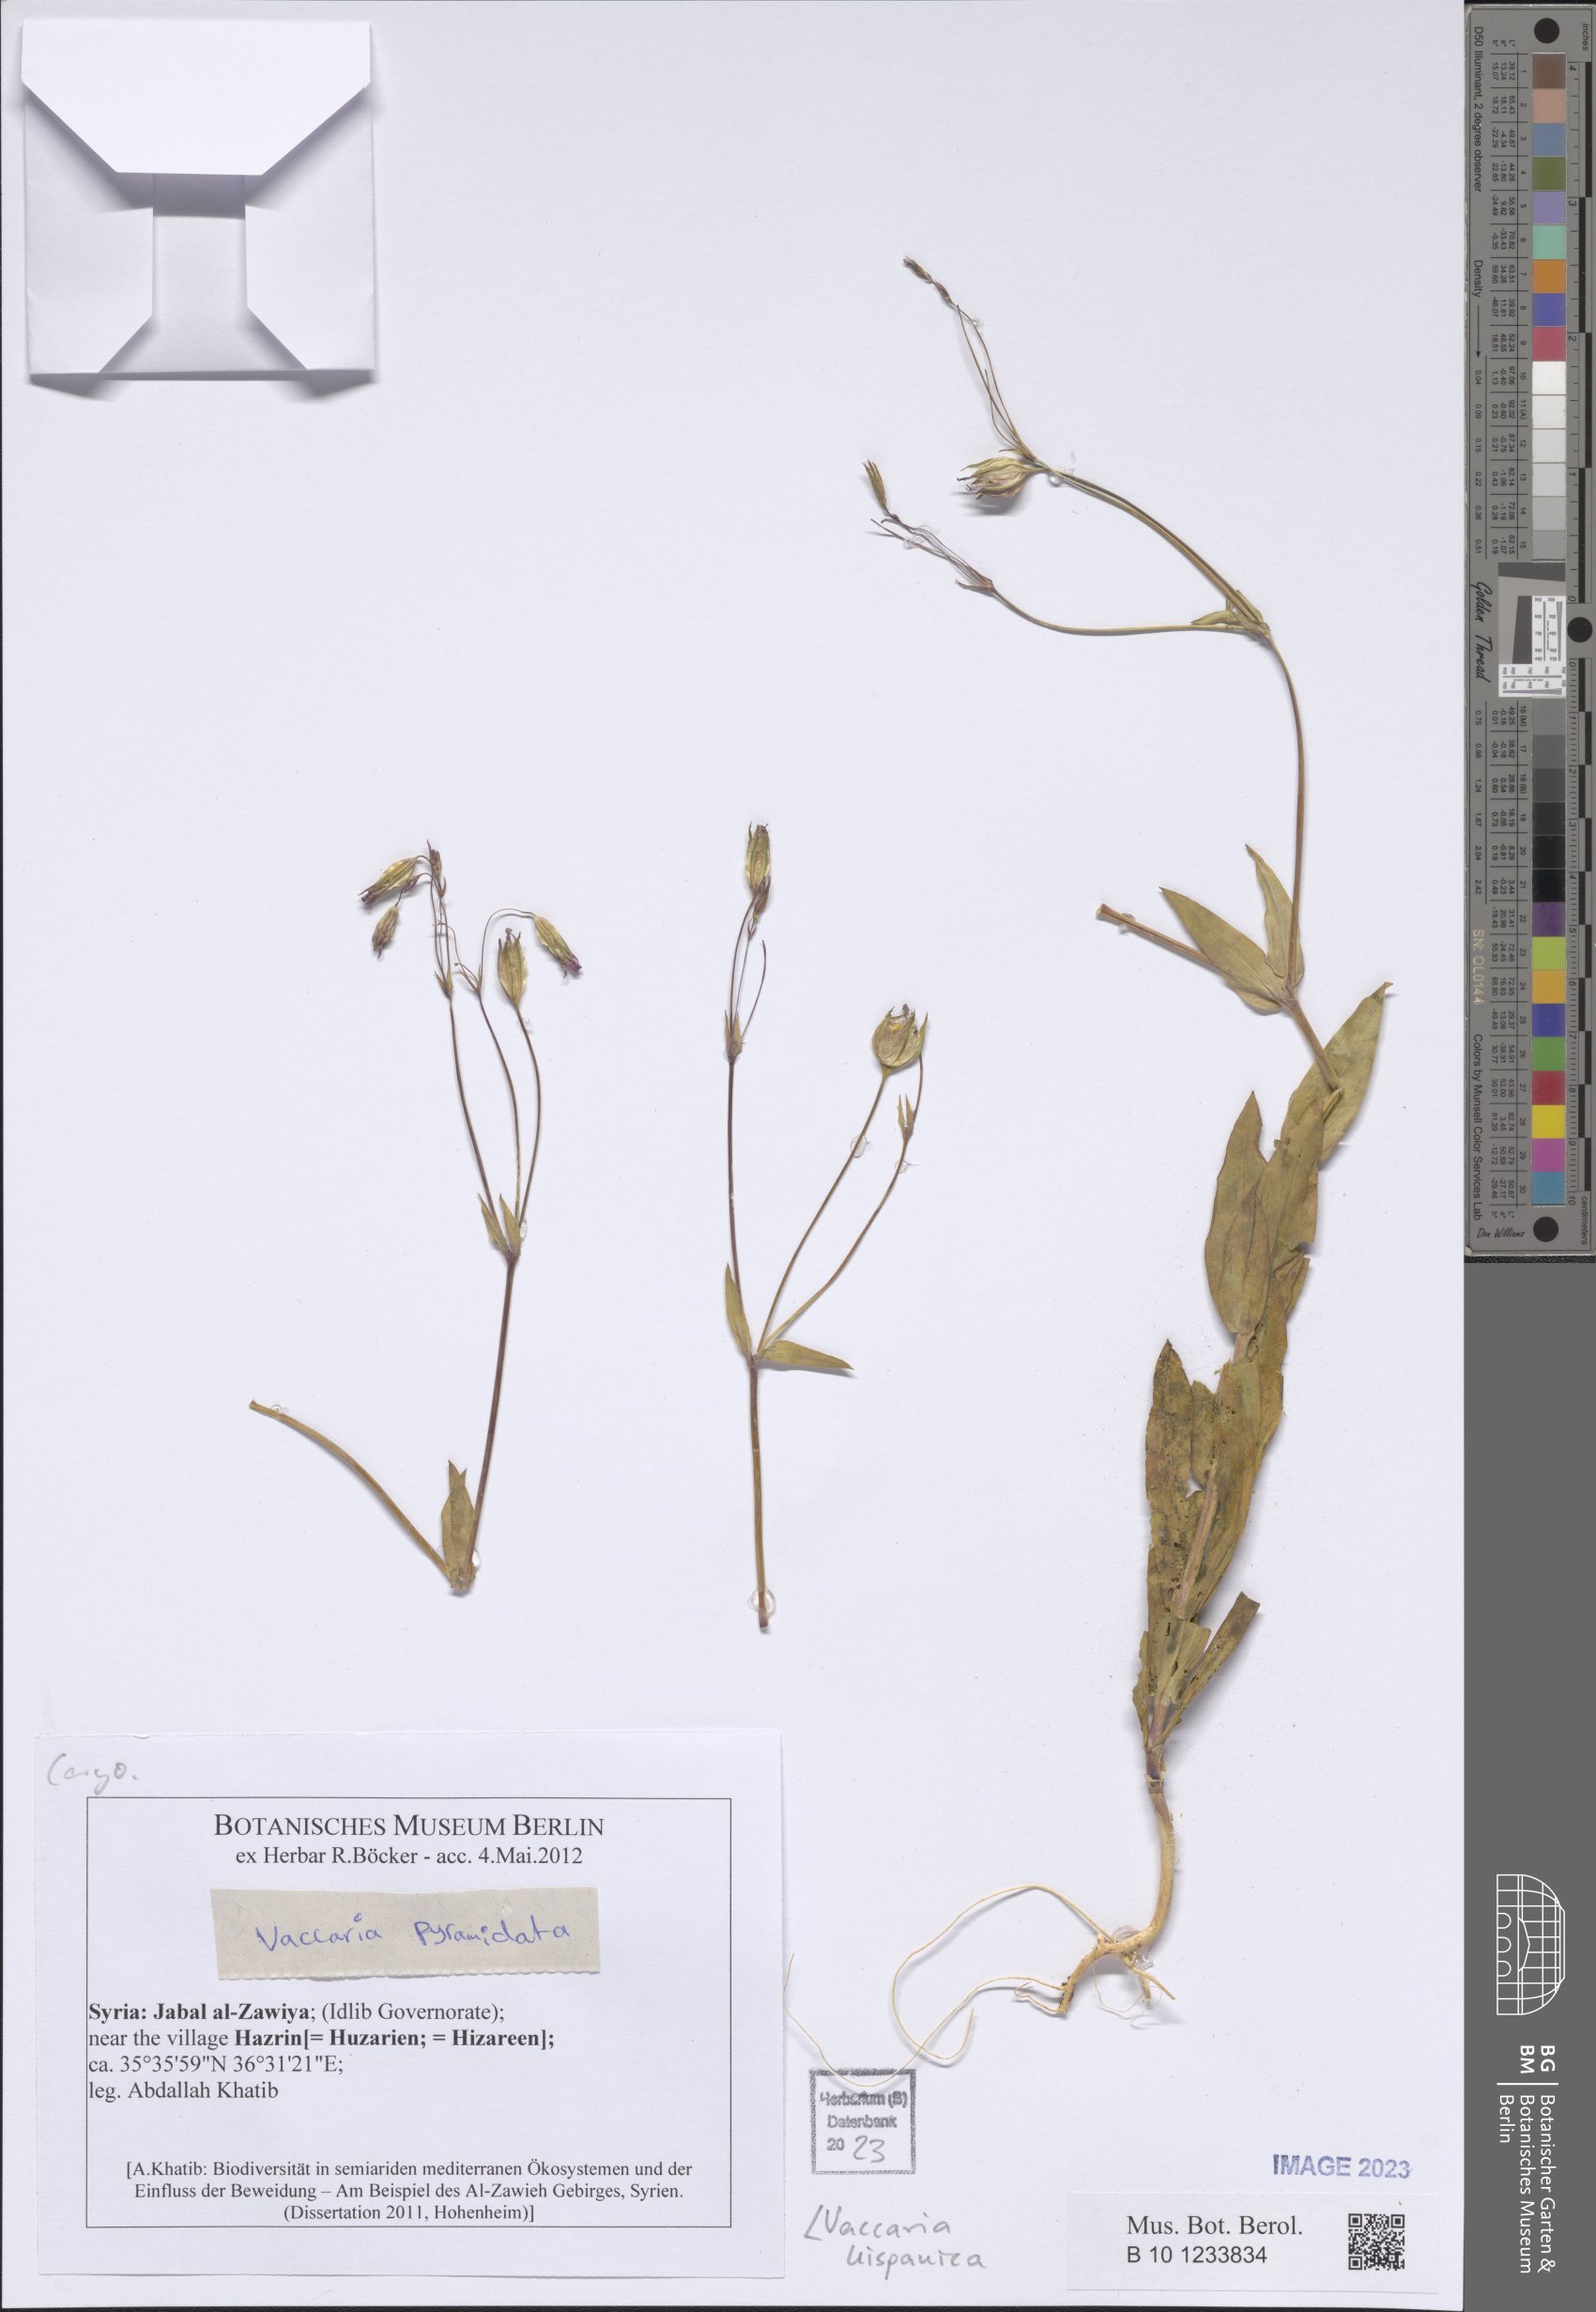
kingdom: Plantae
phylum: Tracheophyta
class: Magnoliopsida
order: Caryophyllales
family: Caryophyllaceae
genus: Gypsophila
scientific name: Gypsophila vaccaria
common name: Cow soapwort
